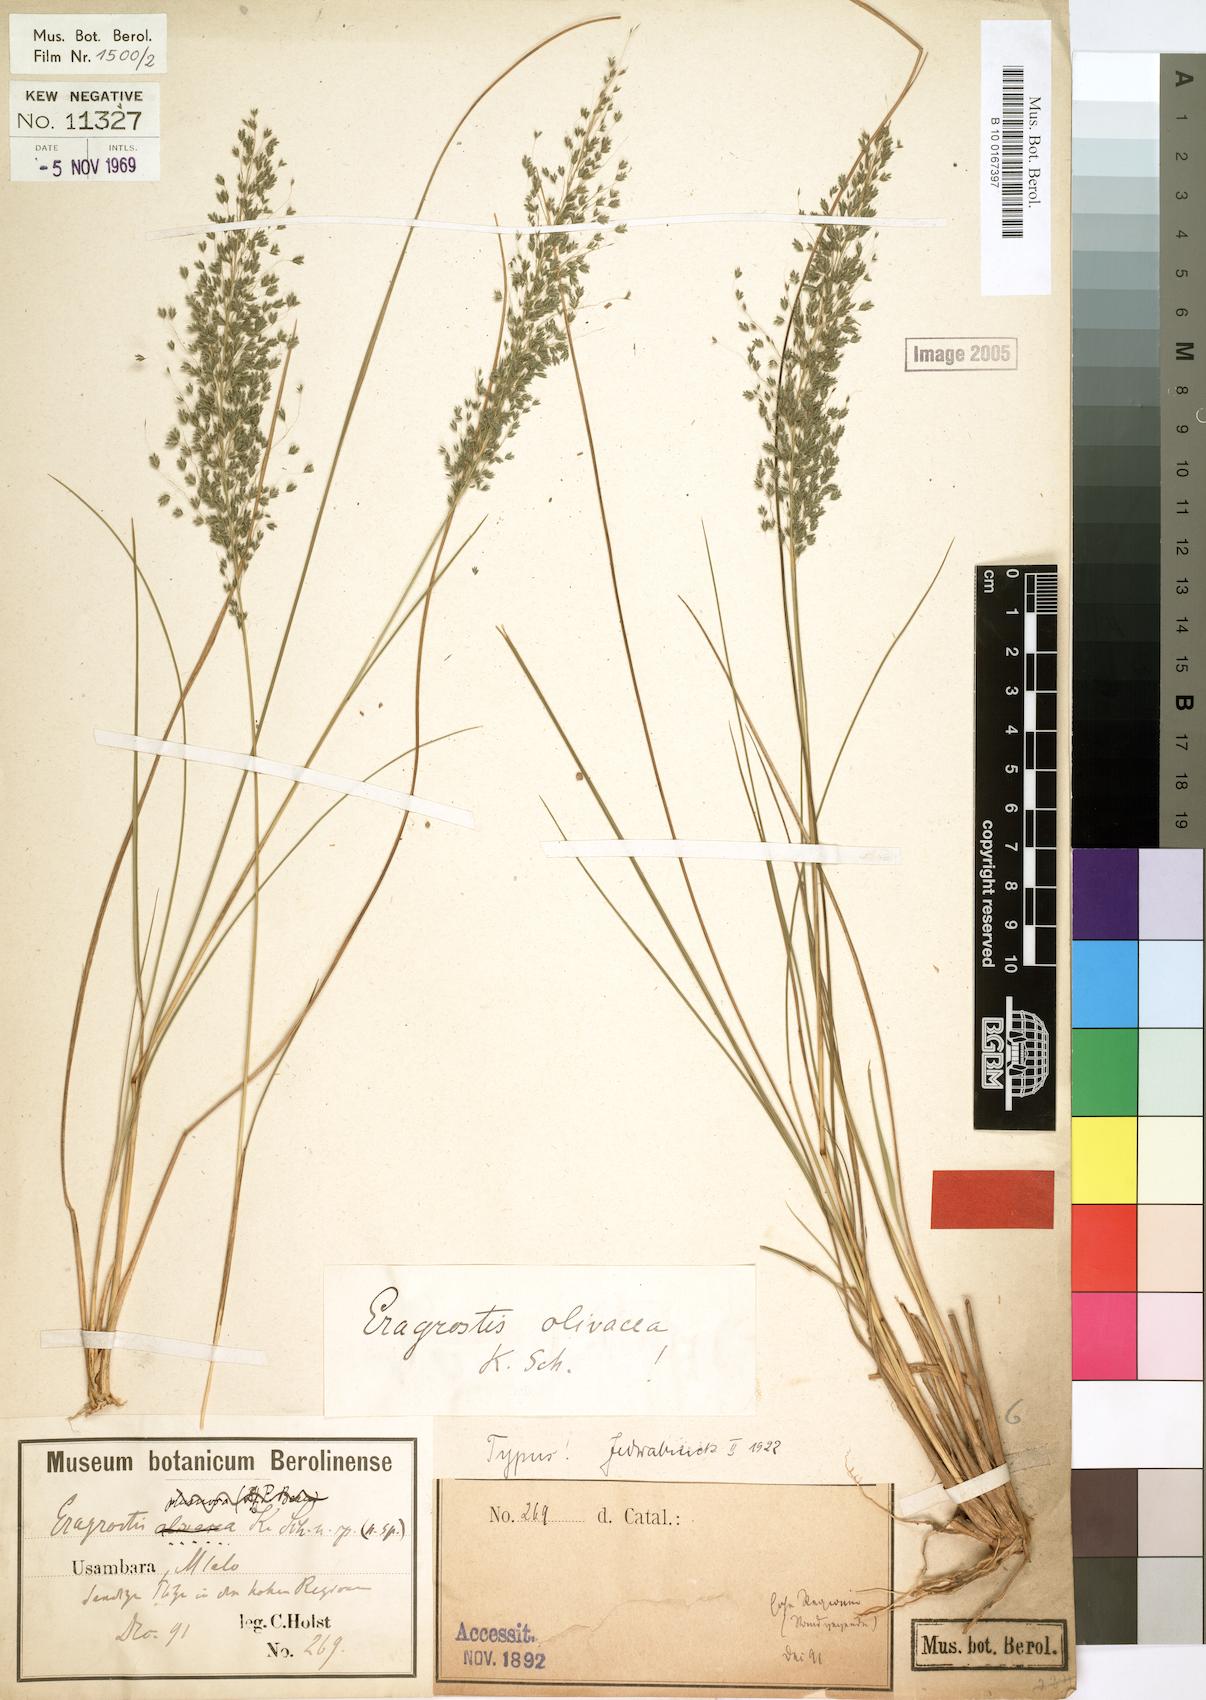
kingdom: Plantae
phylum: Tracheophyta
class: Liliopsida
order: Poales
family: Poaceae
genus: Eragrostis
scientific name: Eragrostis olivacea
